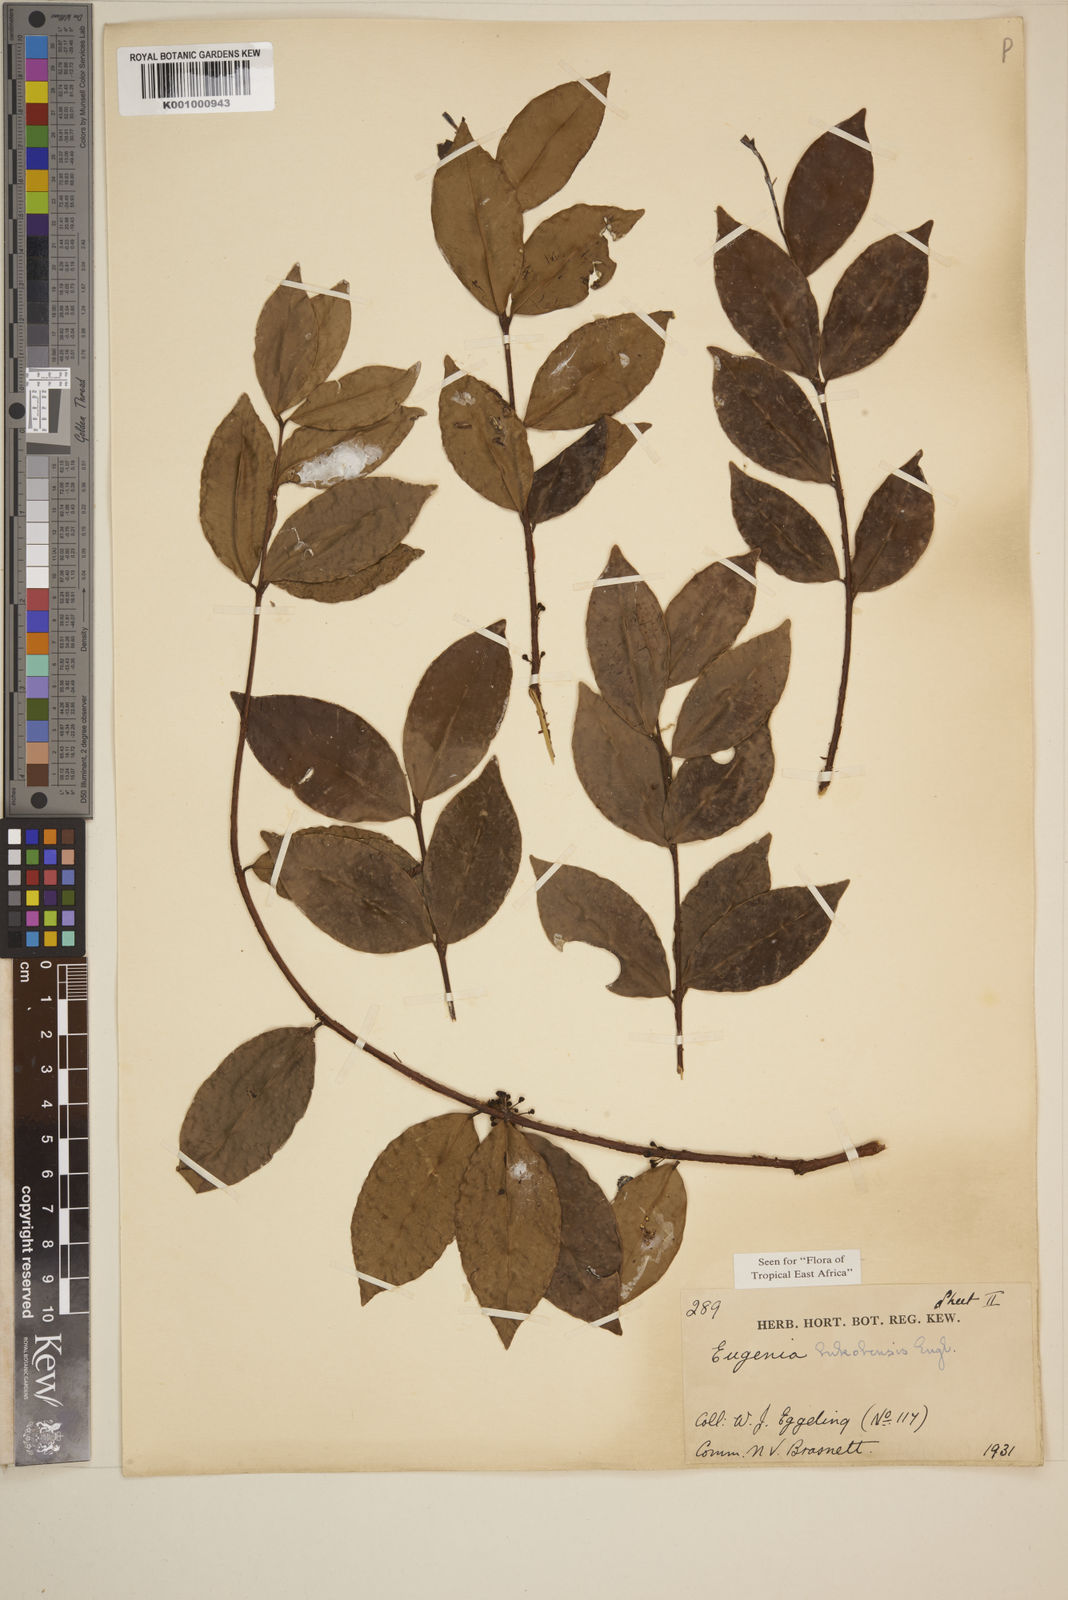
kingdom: Plantae
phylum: Tracheophyta
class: Magnoliopsida
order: Myrtales
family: Myrtaceae
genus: Eugenia
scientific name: Eugenia bukobensis
